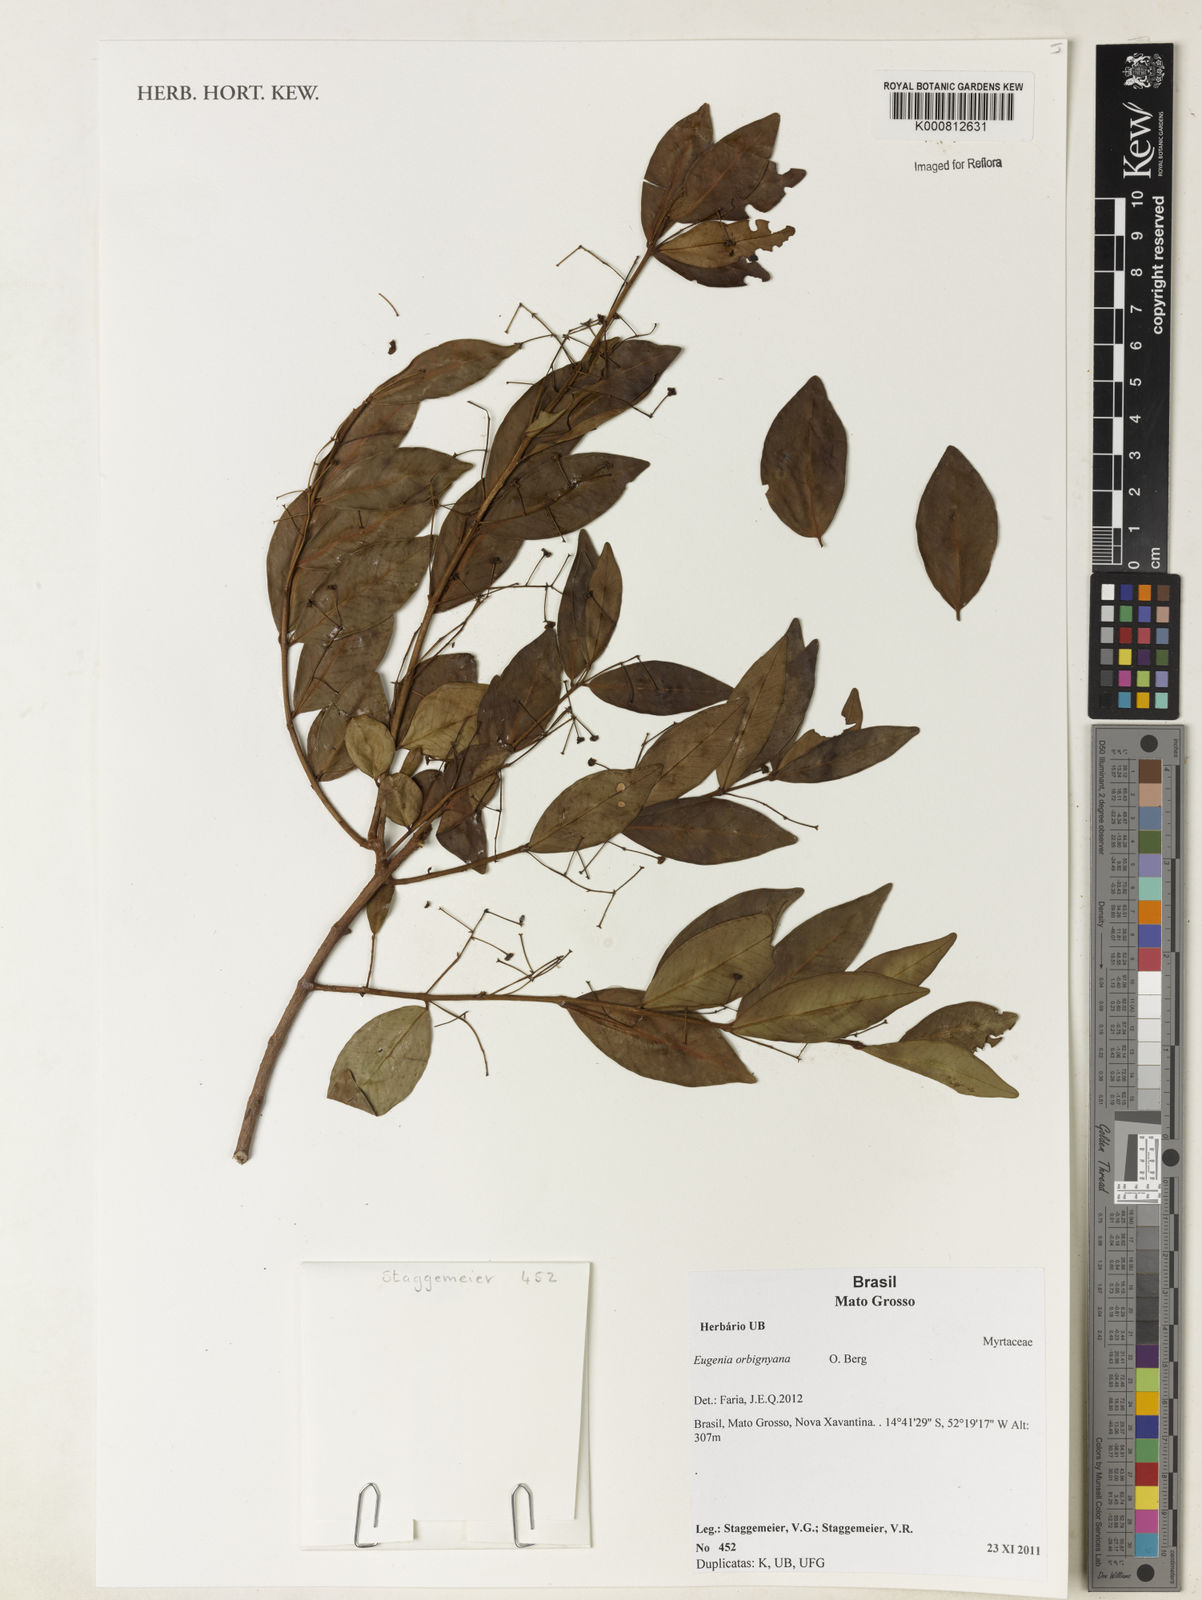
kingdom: Plantae
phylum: Tracheophyta
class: Magnoliopsida
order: Myrtales
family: Myrtaceae
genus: Eugenia
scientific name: Eugenia orbignyana
